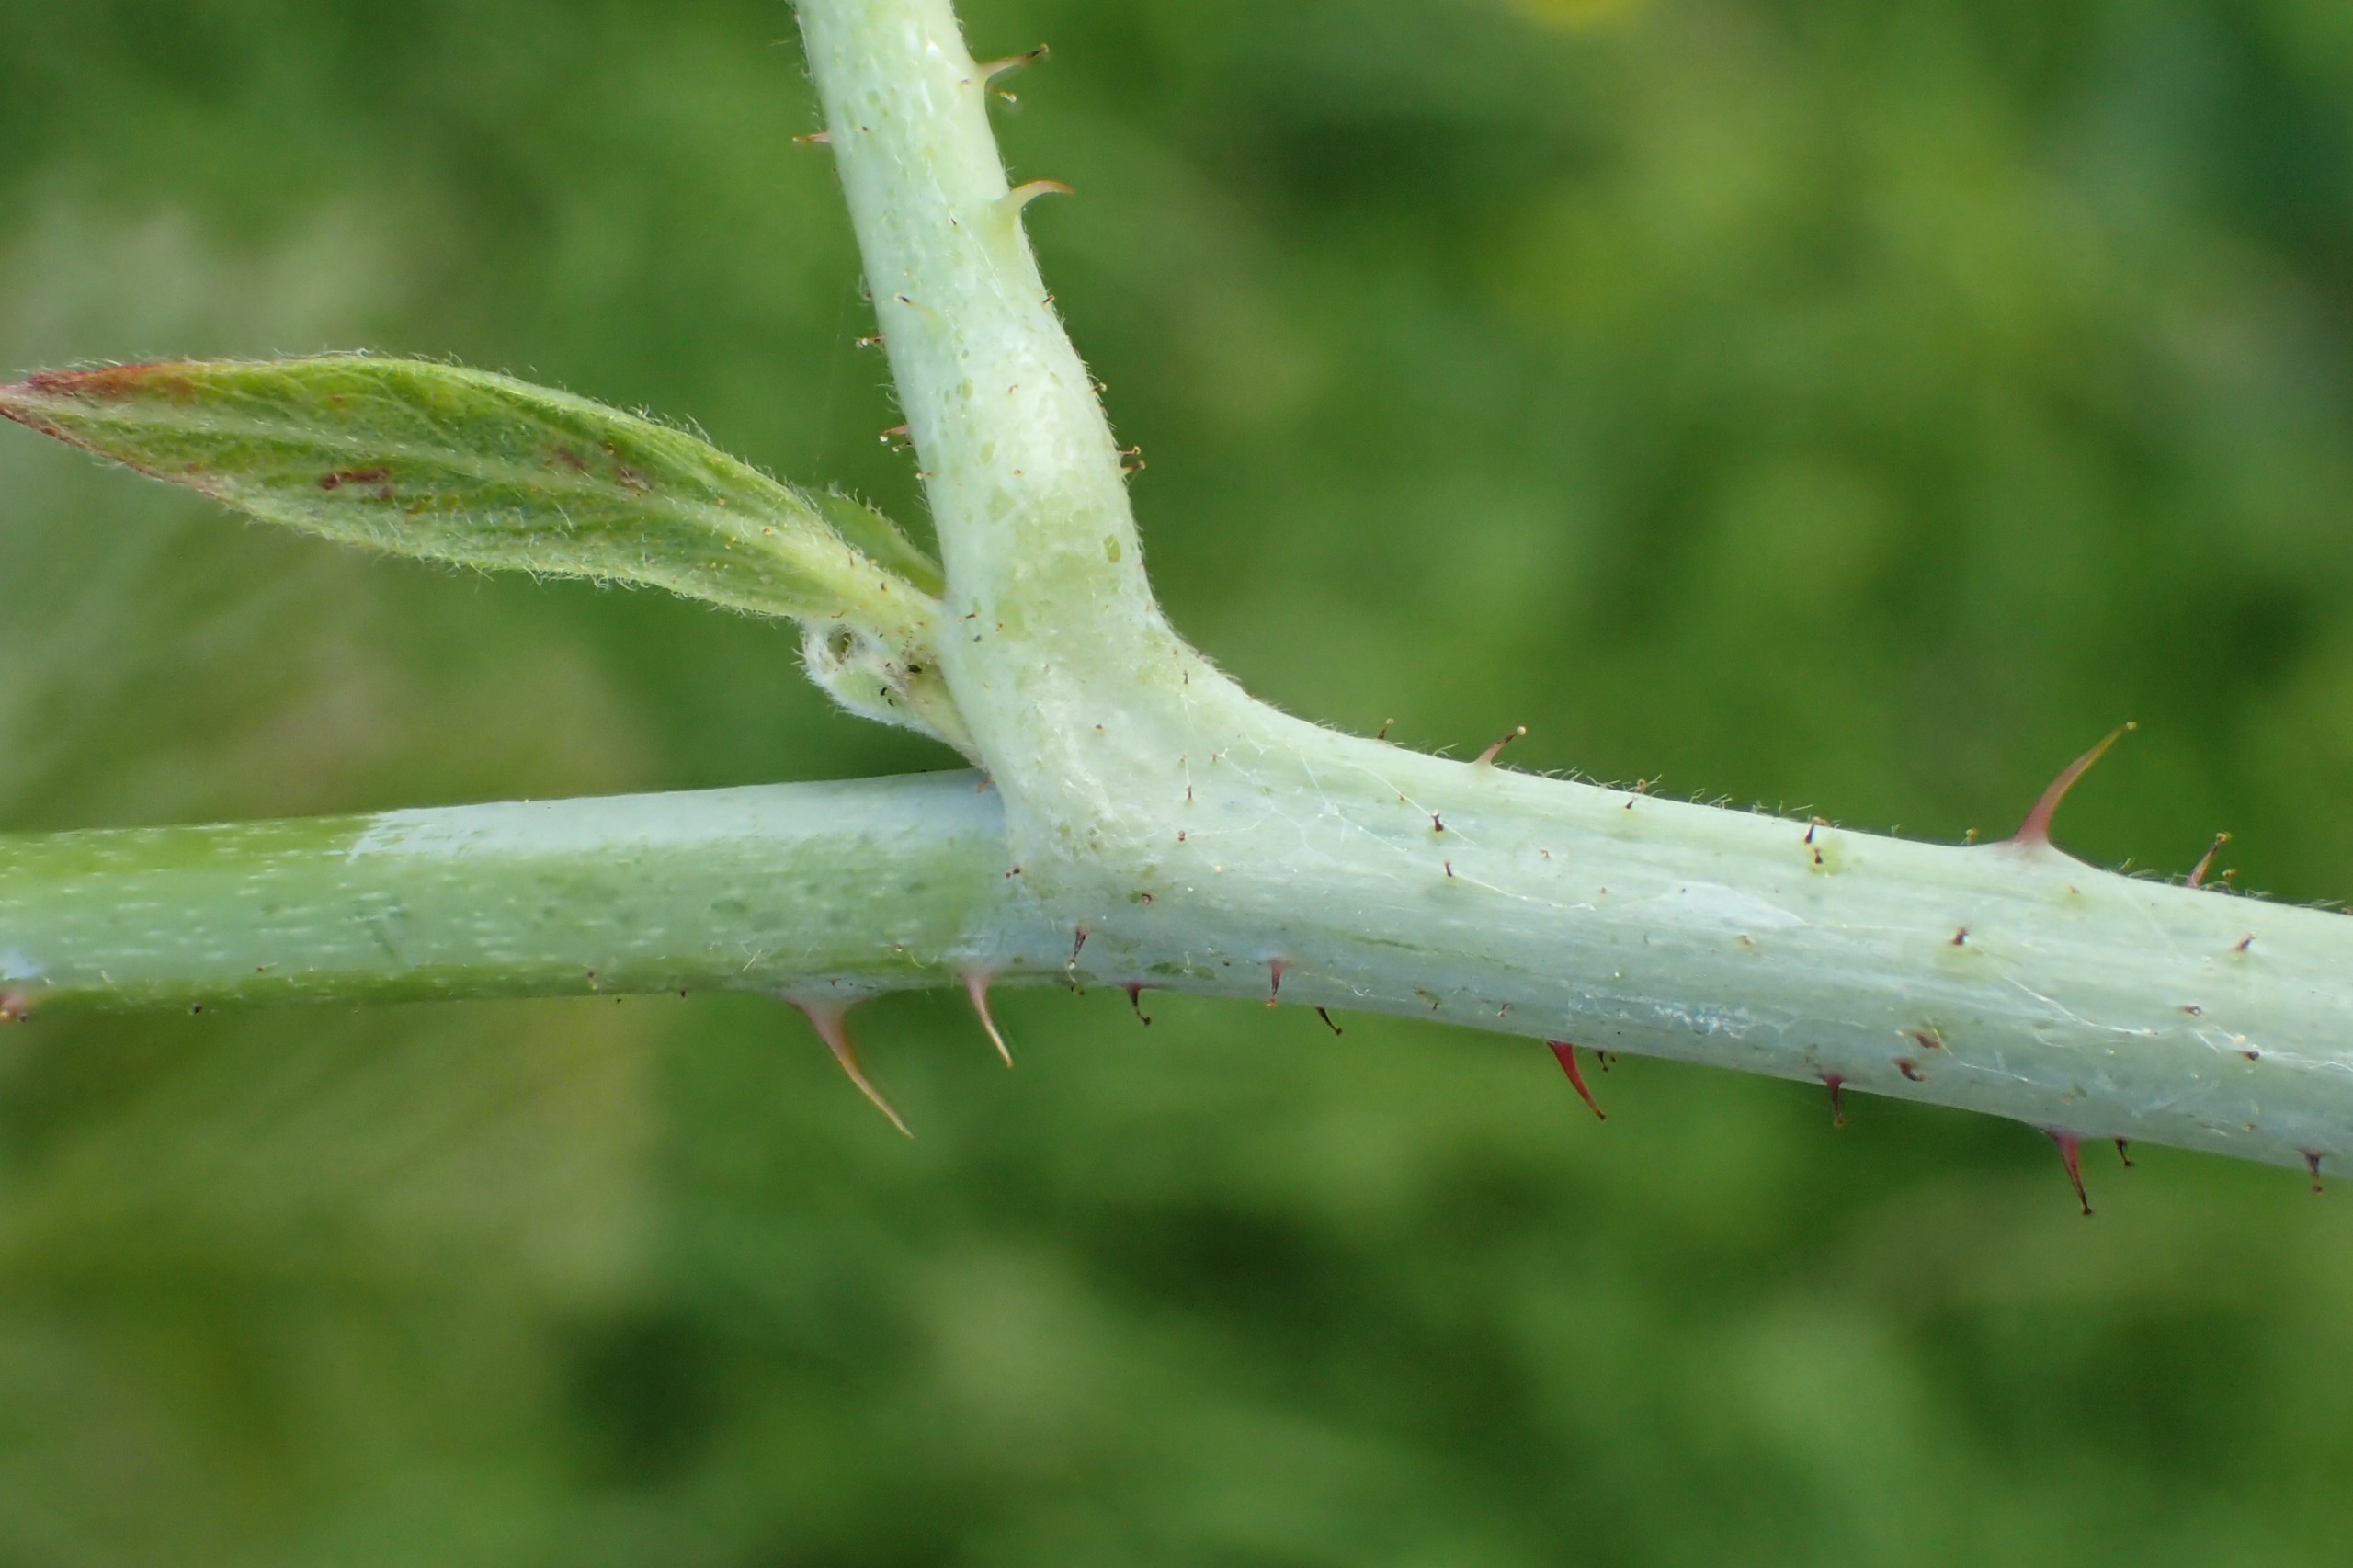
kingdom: Plantae
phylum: Tracheophyta
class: Magnoliopsida
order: Rosales
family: Rosaceae
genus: Rubus
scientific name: Rubus caesius
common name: Korbær
